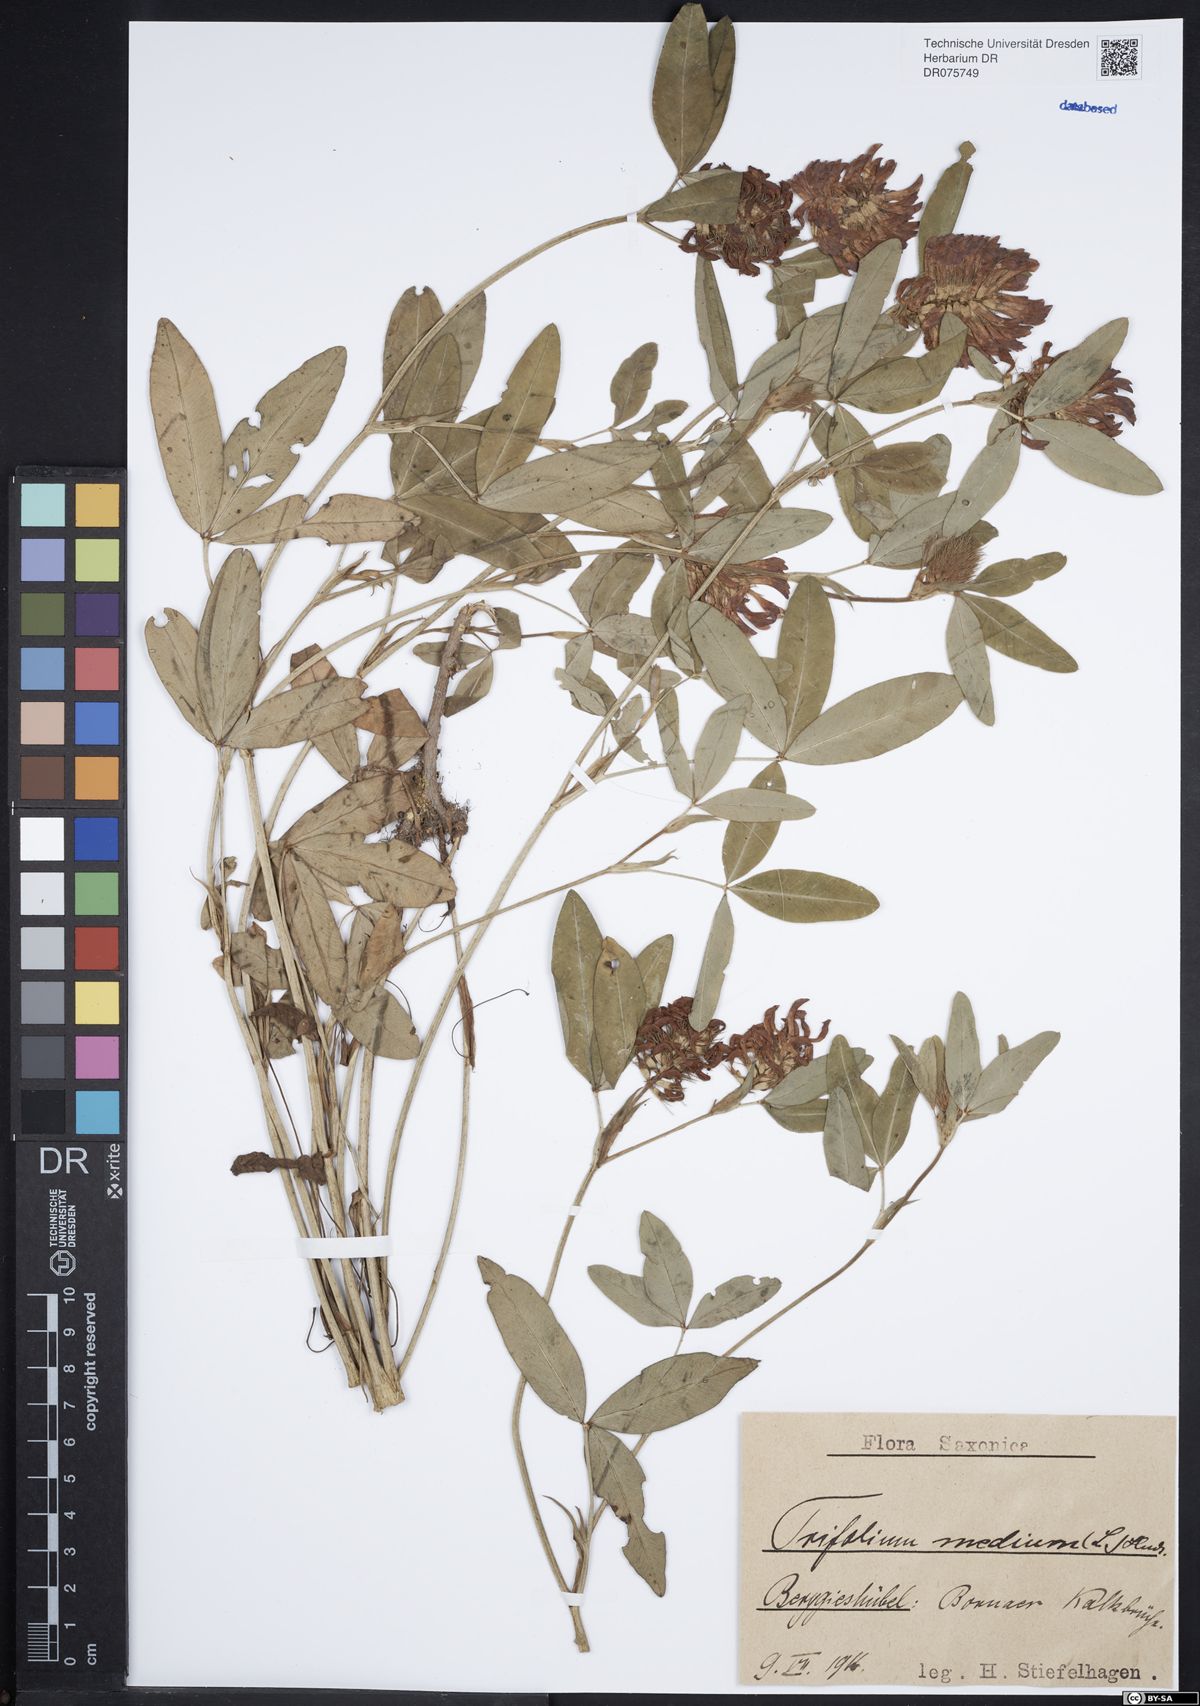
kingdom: Plantae
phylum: Tracheophyta
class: Magnoliopsida
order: Fabales
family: Fabaceae
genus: Trifolium
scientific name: Trifolium medium
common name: Zigzag clover
